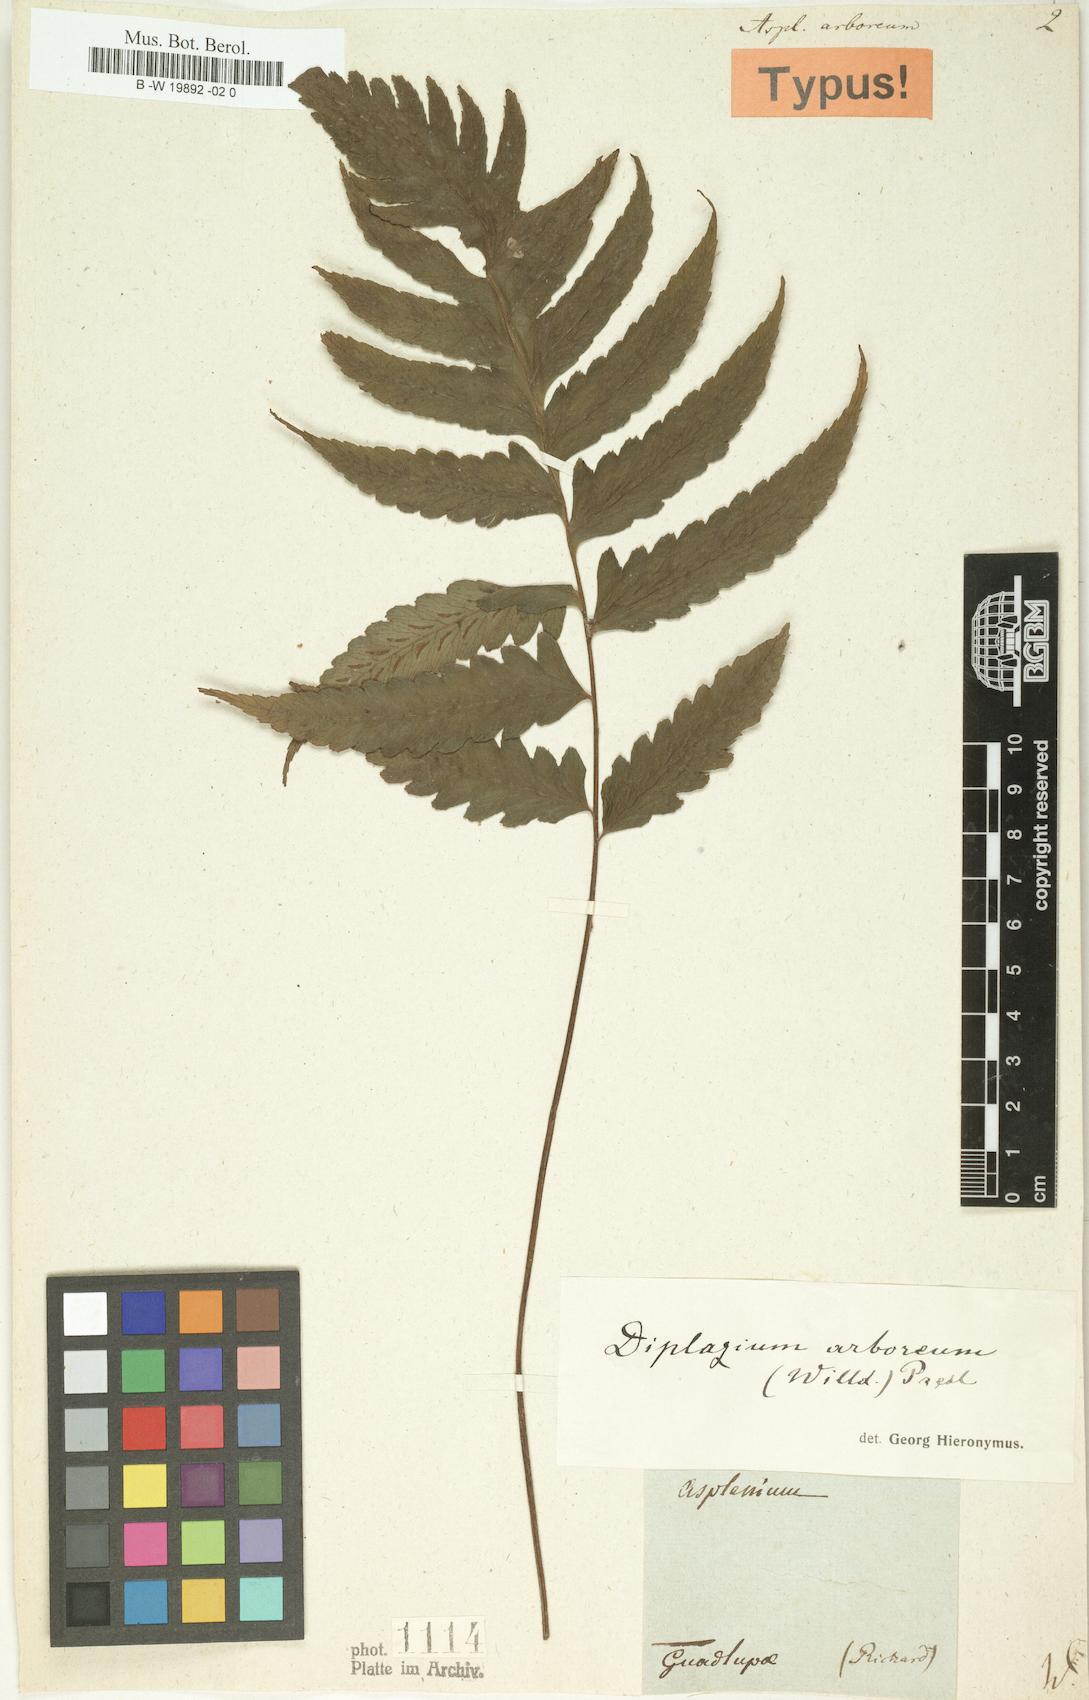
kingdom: Plantae
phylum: Tracheophyta
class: Polypodiopsida
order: Polypodiales
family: Athyriaceae
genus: Diplazium
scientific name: Diplazium cristatum
